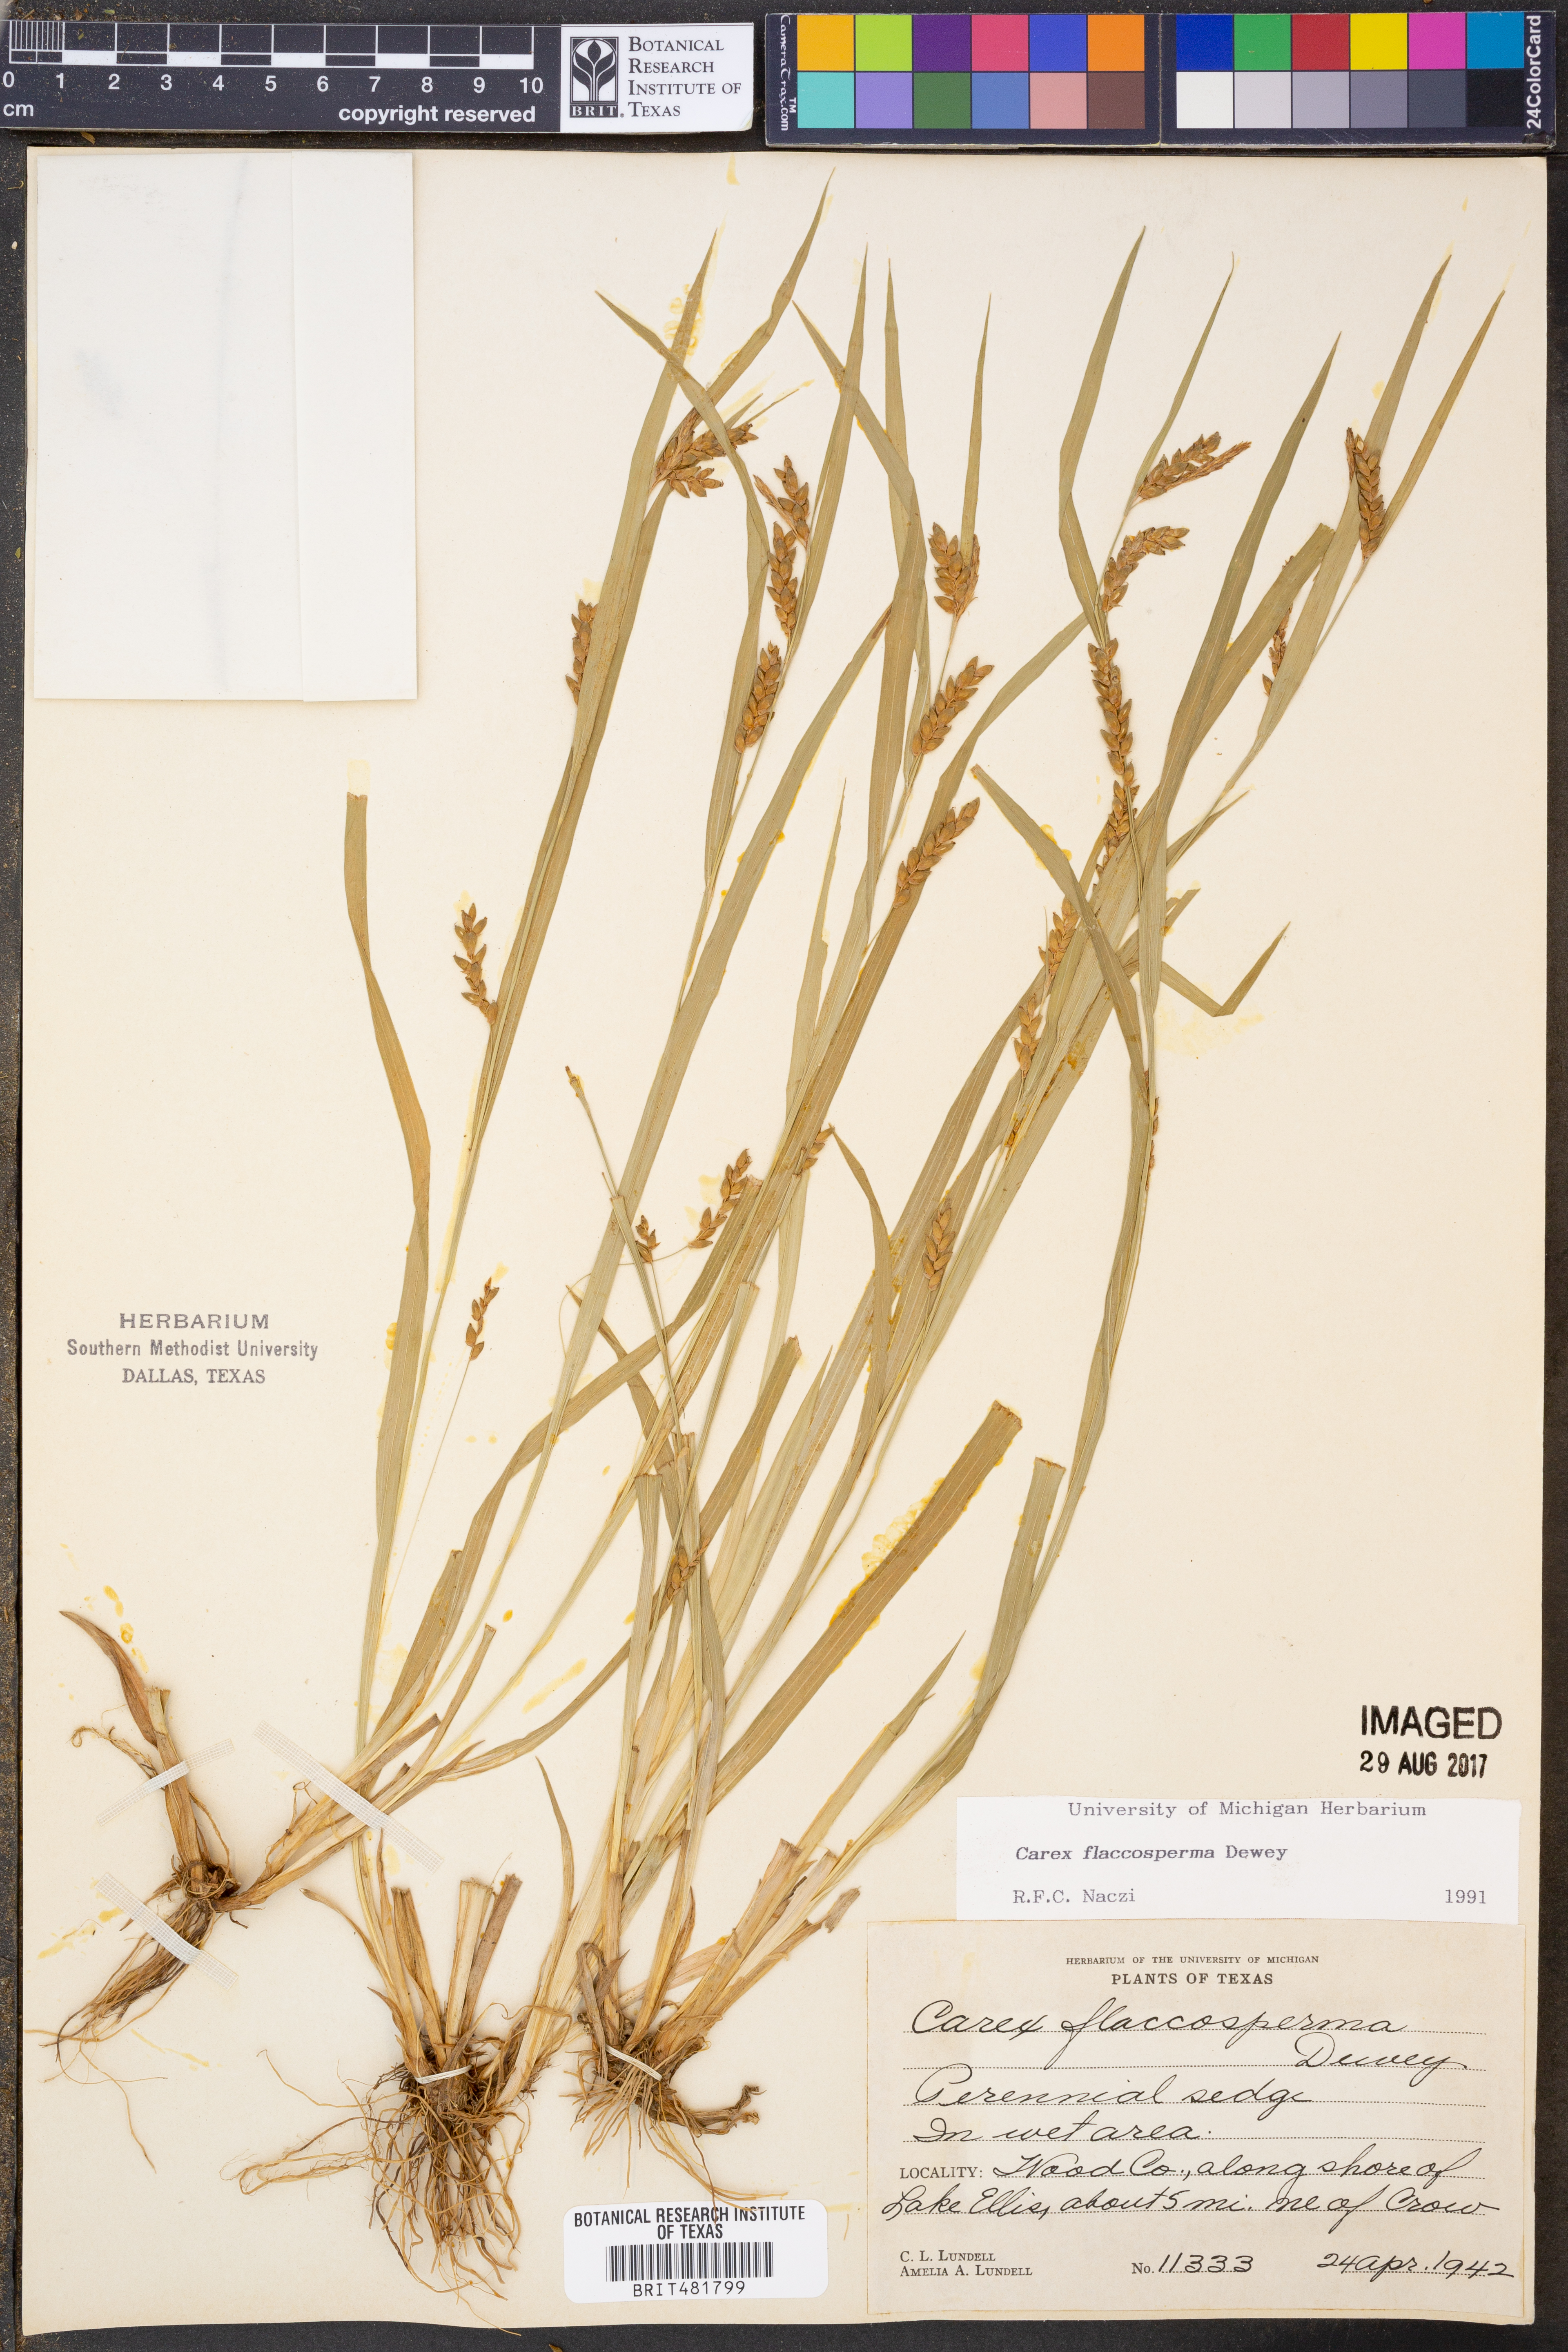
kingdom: Plantae
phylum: Tracheophyta
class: Liliopsida
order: Poales
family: Cyperaceae
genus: Carex
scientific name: Carex flaccosperma
